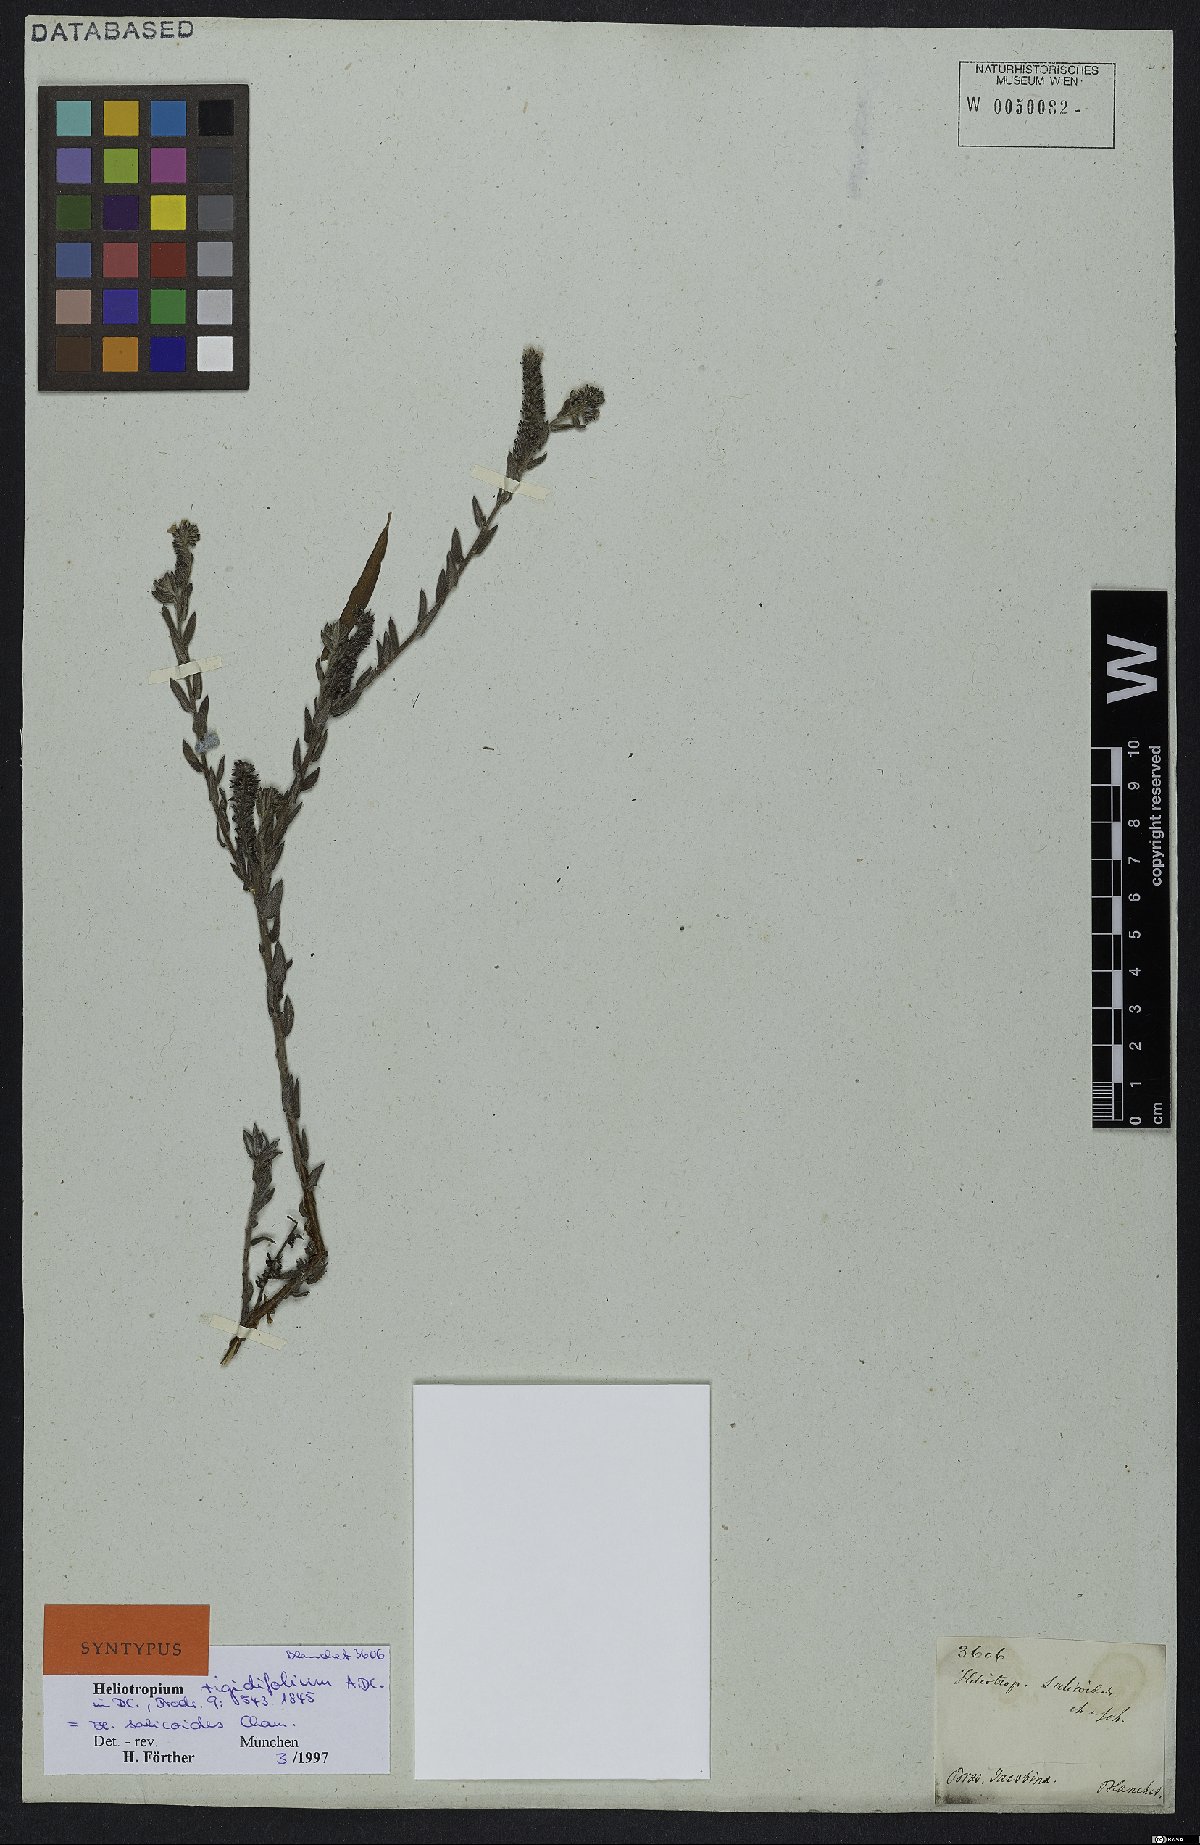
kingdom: Plantae
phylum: Tracheophyta
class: Magnoliopsida
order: Boraginales
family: Heliotropiaceae
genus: Euploca
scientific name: Euploca salicoides
